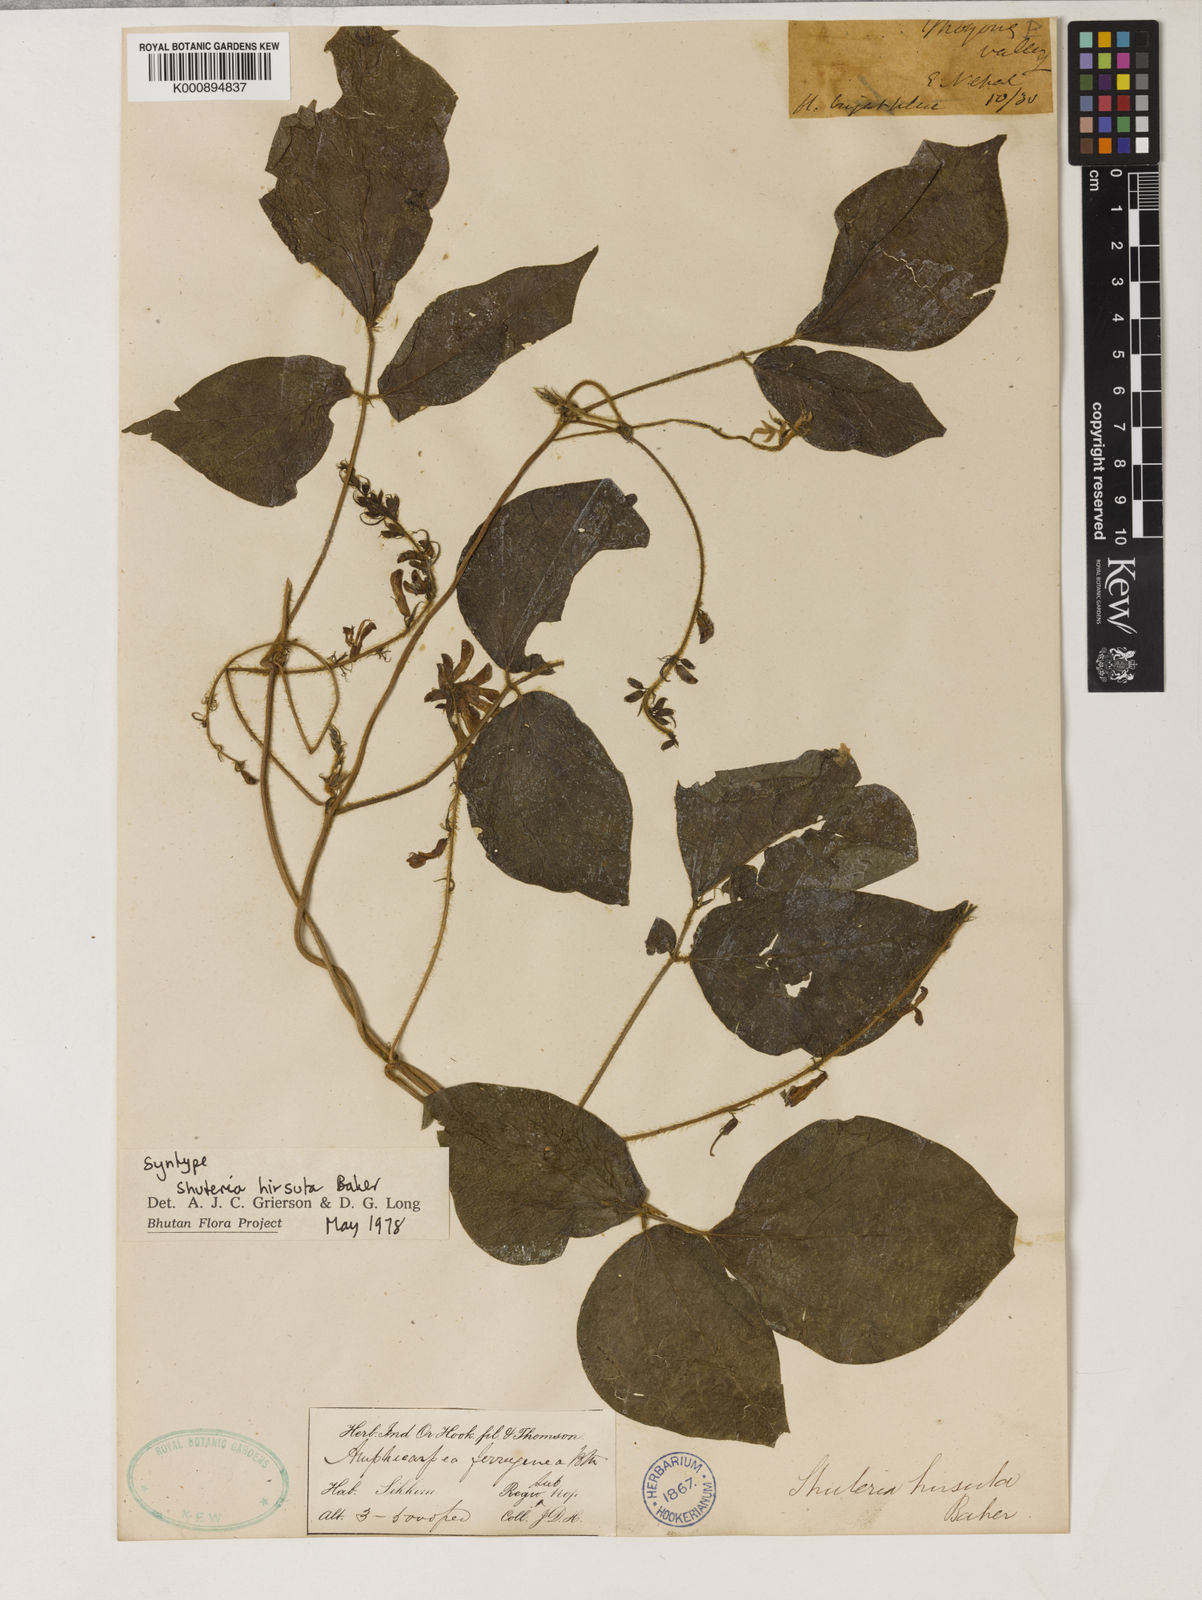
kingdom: Plantae
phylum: Tracheophyta
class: Magnoliopsida
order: Fabales
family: Fabaceae
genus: Harashuteria
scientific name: Harashuteria hirsuta
